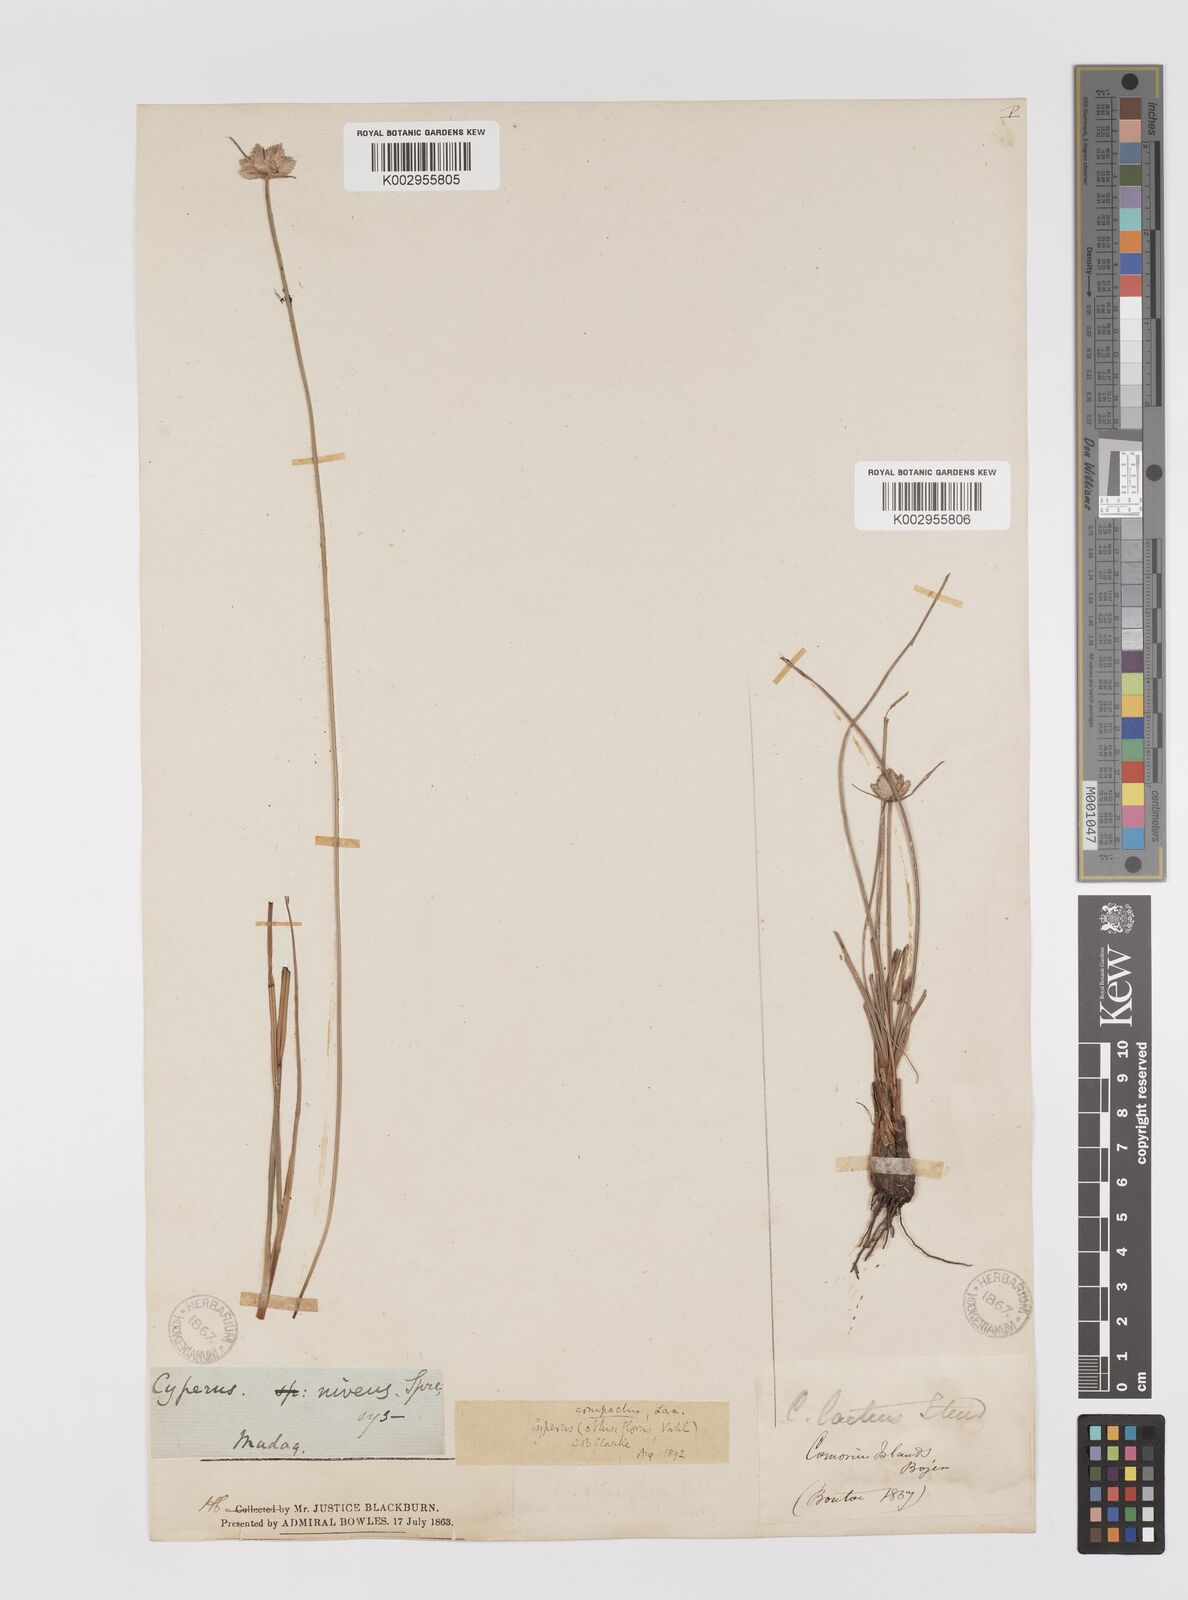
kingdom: Plantae
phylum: Tracheophyta
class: Liliopsida
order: Poales
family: Cyperaceae
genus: Cyperus
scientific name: Cyperus niveus
